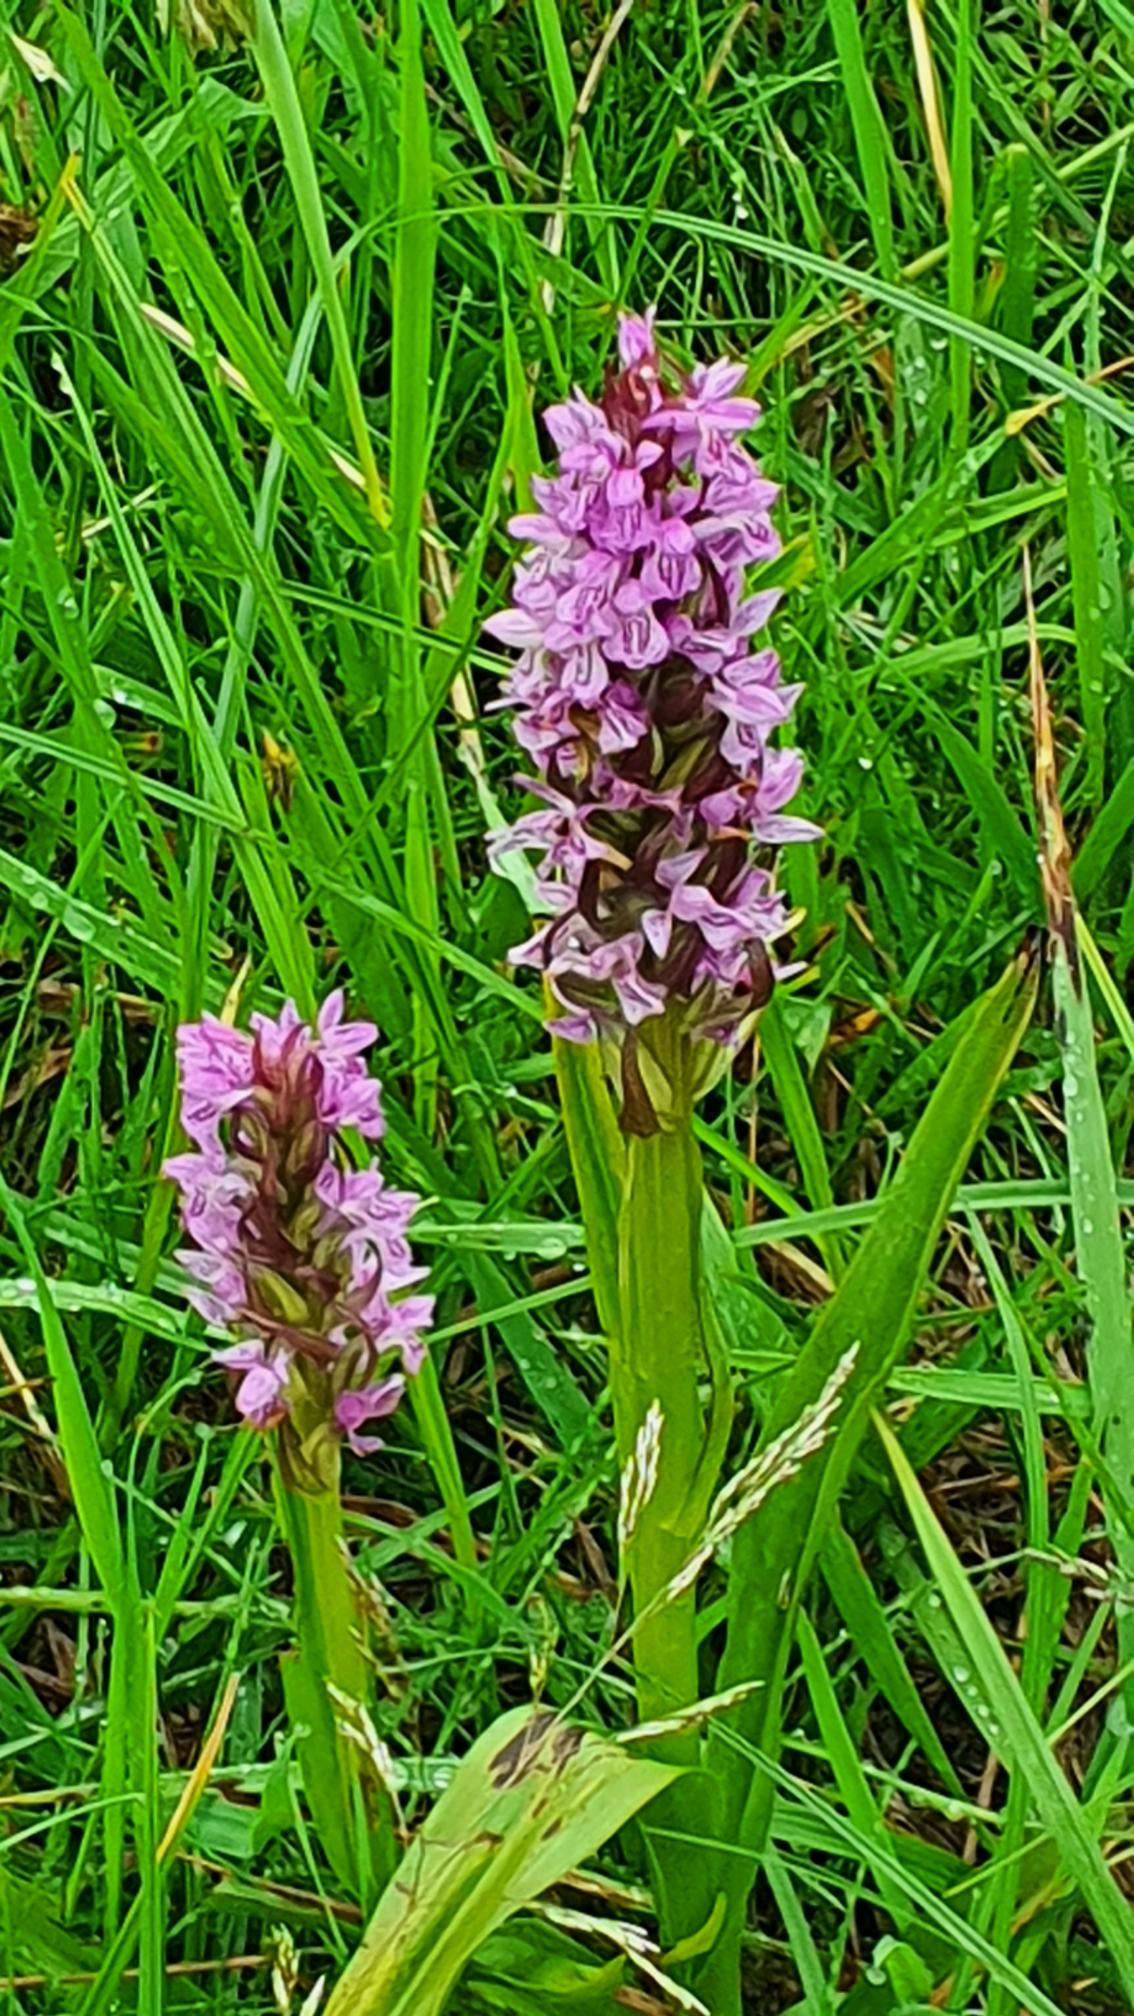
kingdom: Plantae
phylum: Tracheophyta
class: Liliopsida
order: Asparagales
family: Orchidaceae
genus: Dactylorhiza
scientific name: Dactylorhiza incarnata
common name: Kødfarvet gøgeurt
